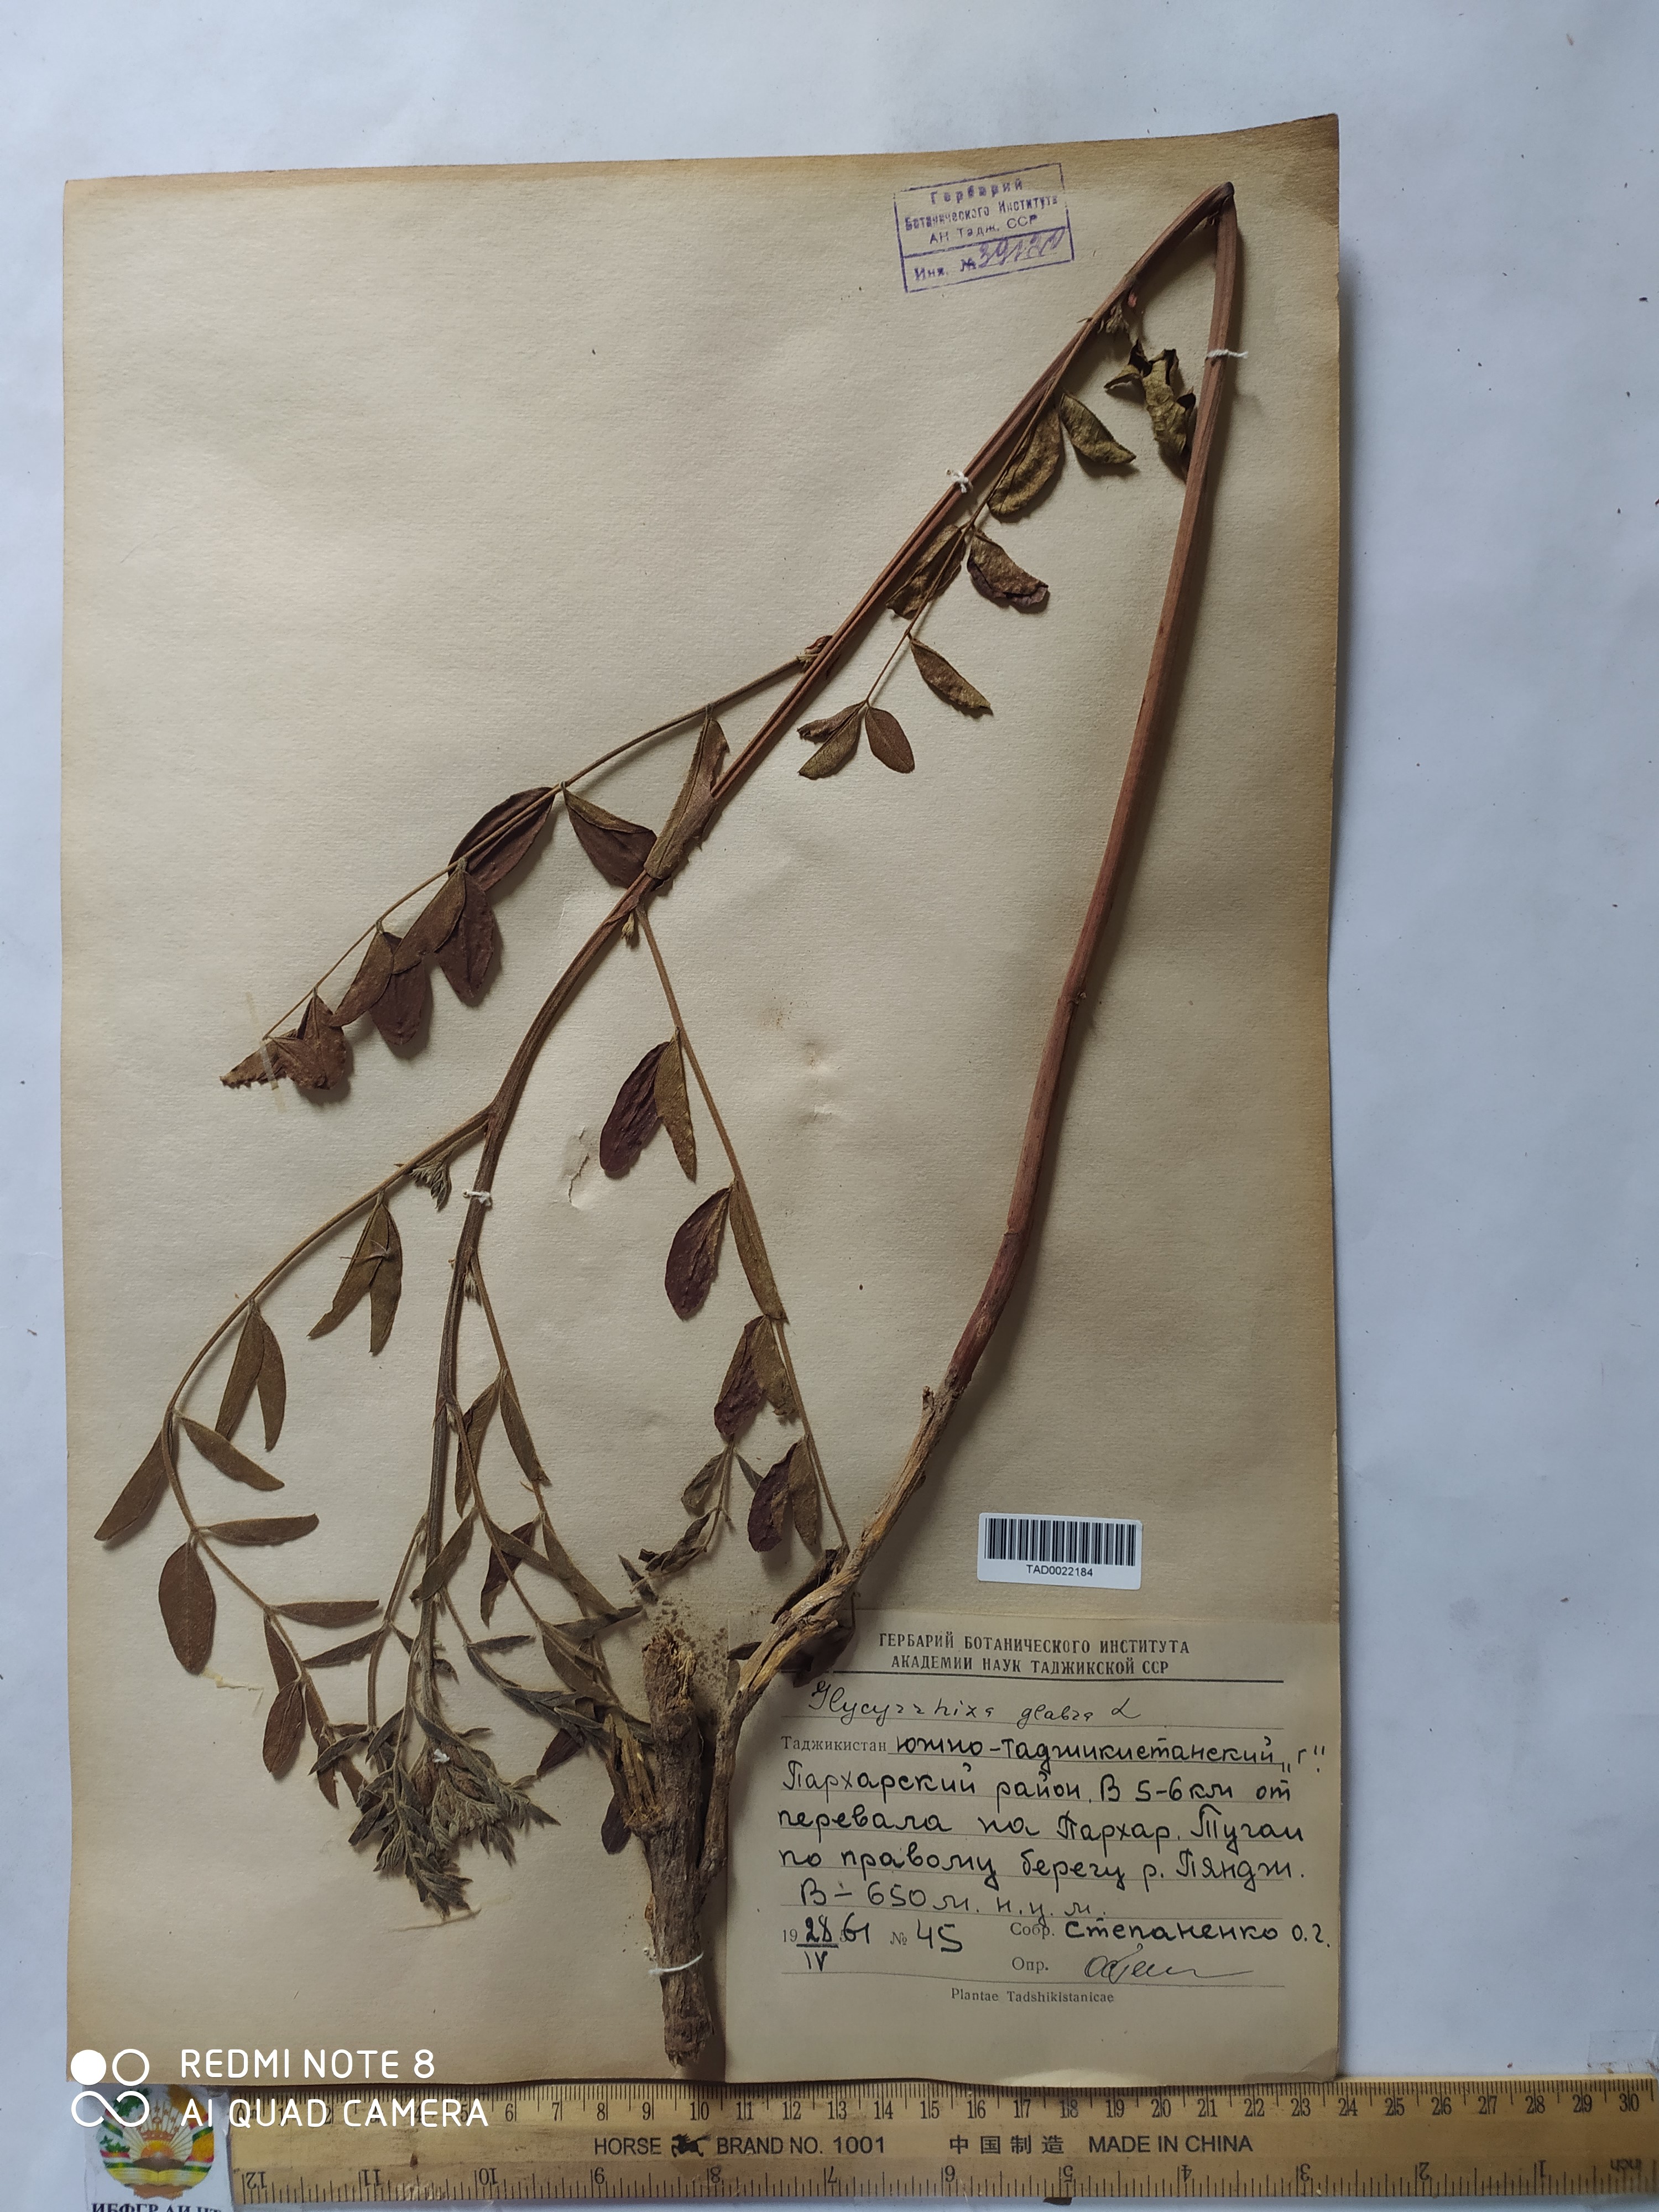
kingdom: Plantae
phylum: Tracheophyta
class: Magnoliopsida
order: Fabales
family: Fabaceae
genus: Glycyrrhiza
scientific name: Glycyrrhiza glabra
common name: Liquorice
